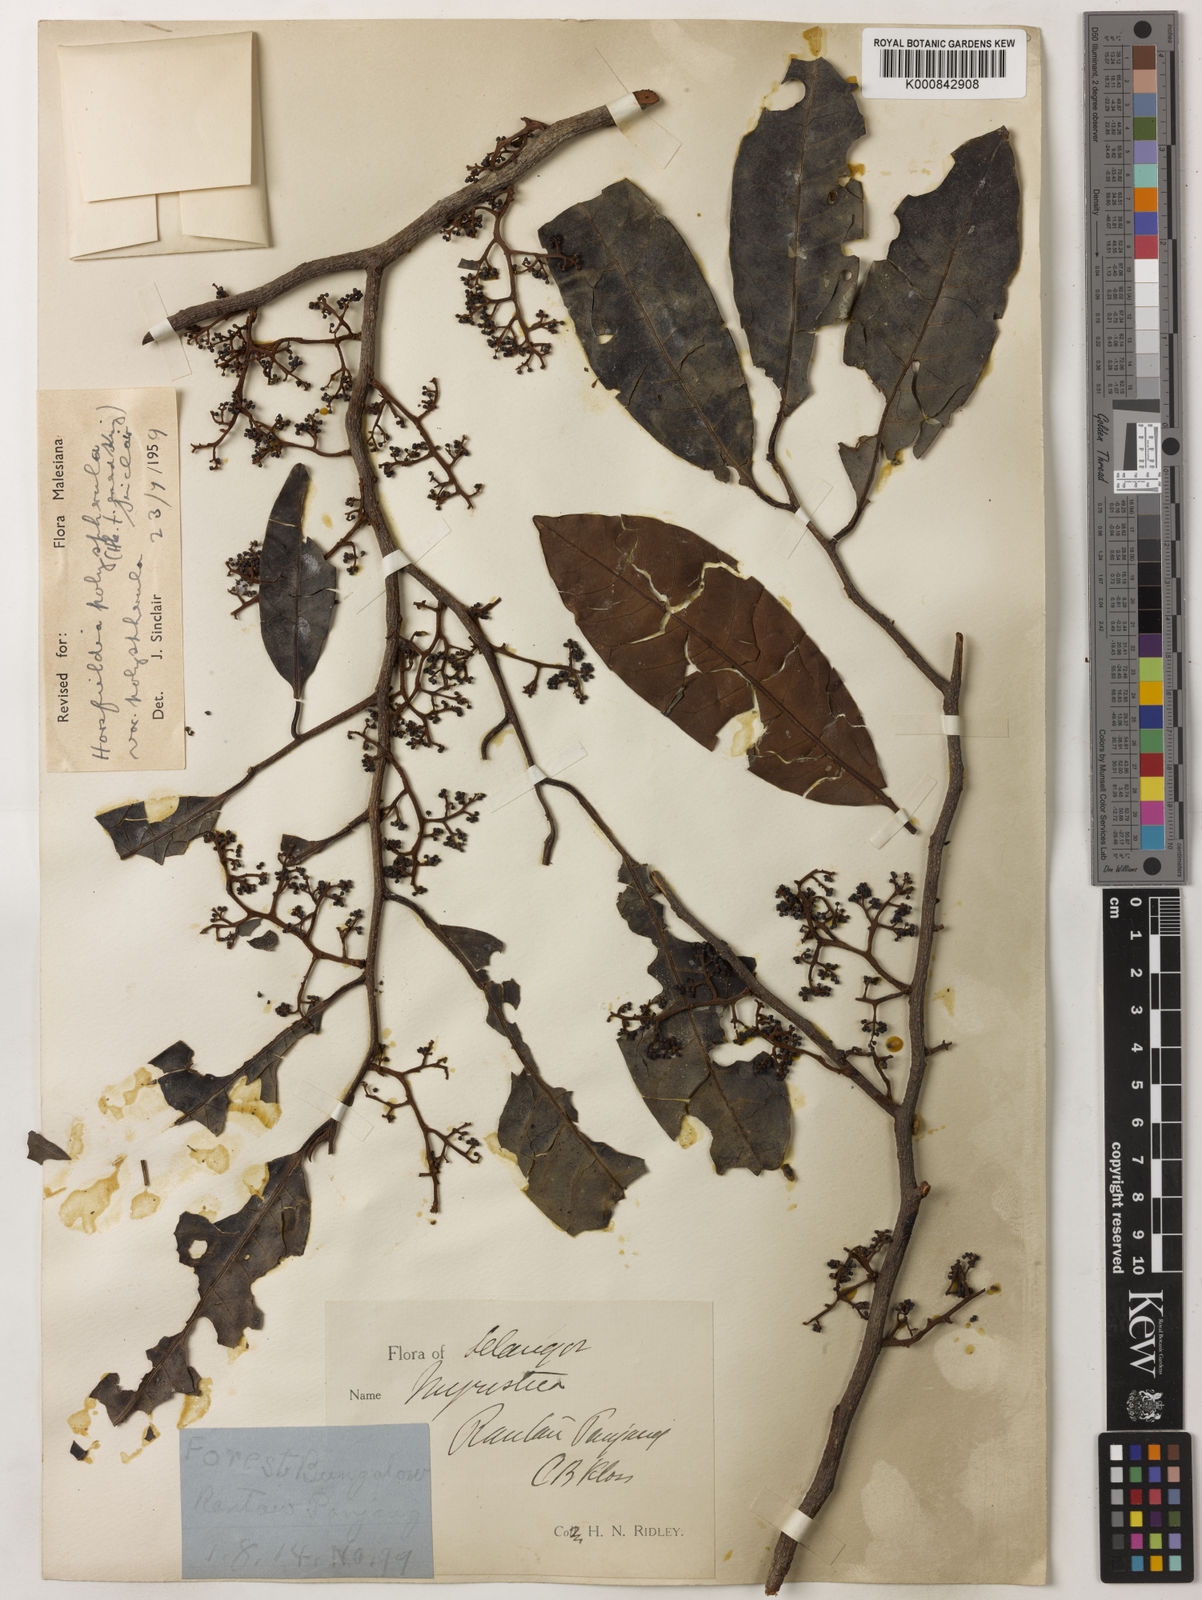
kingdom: Plantae
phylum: Tracheophyta
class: Magnoliopsida
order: Magnoliales
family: Myristicaceae
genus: Horsfieldia
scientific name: Horsfieldia
